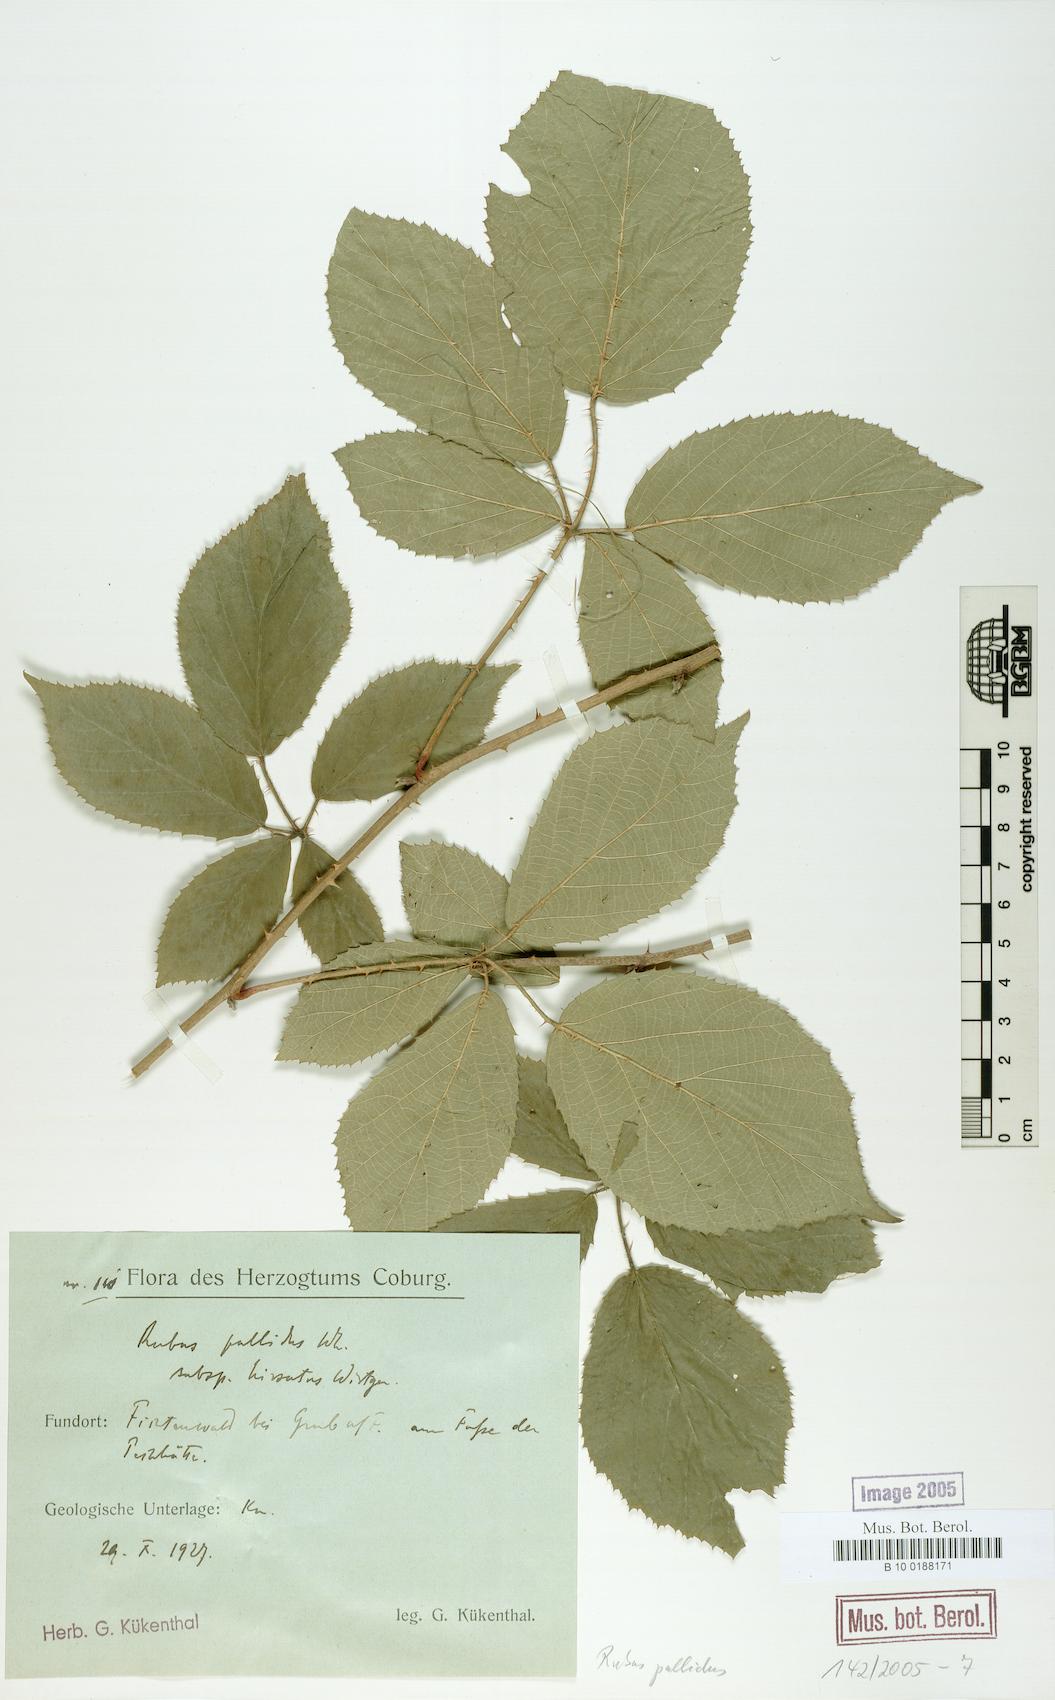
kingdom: Plantae
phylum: Tracheophyta
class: Magnoliopsida
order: Rosales
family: Rosaceae
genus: Rubus
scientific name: Rubus pallidus
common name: Pale bramble
